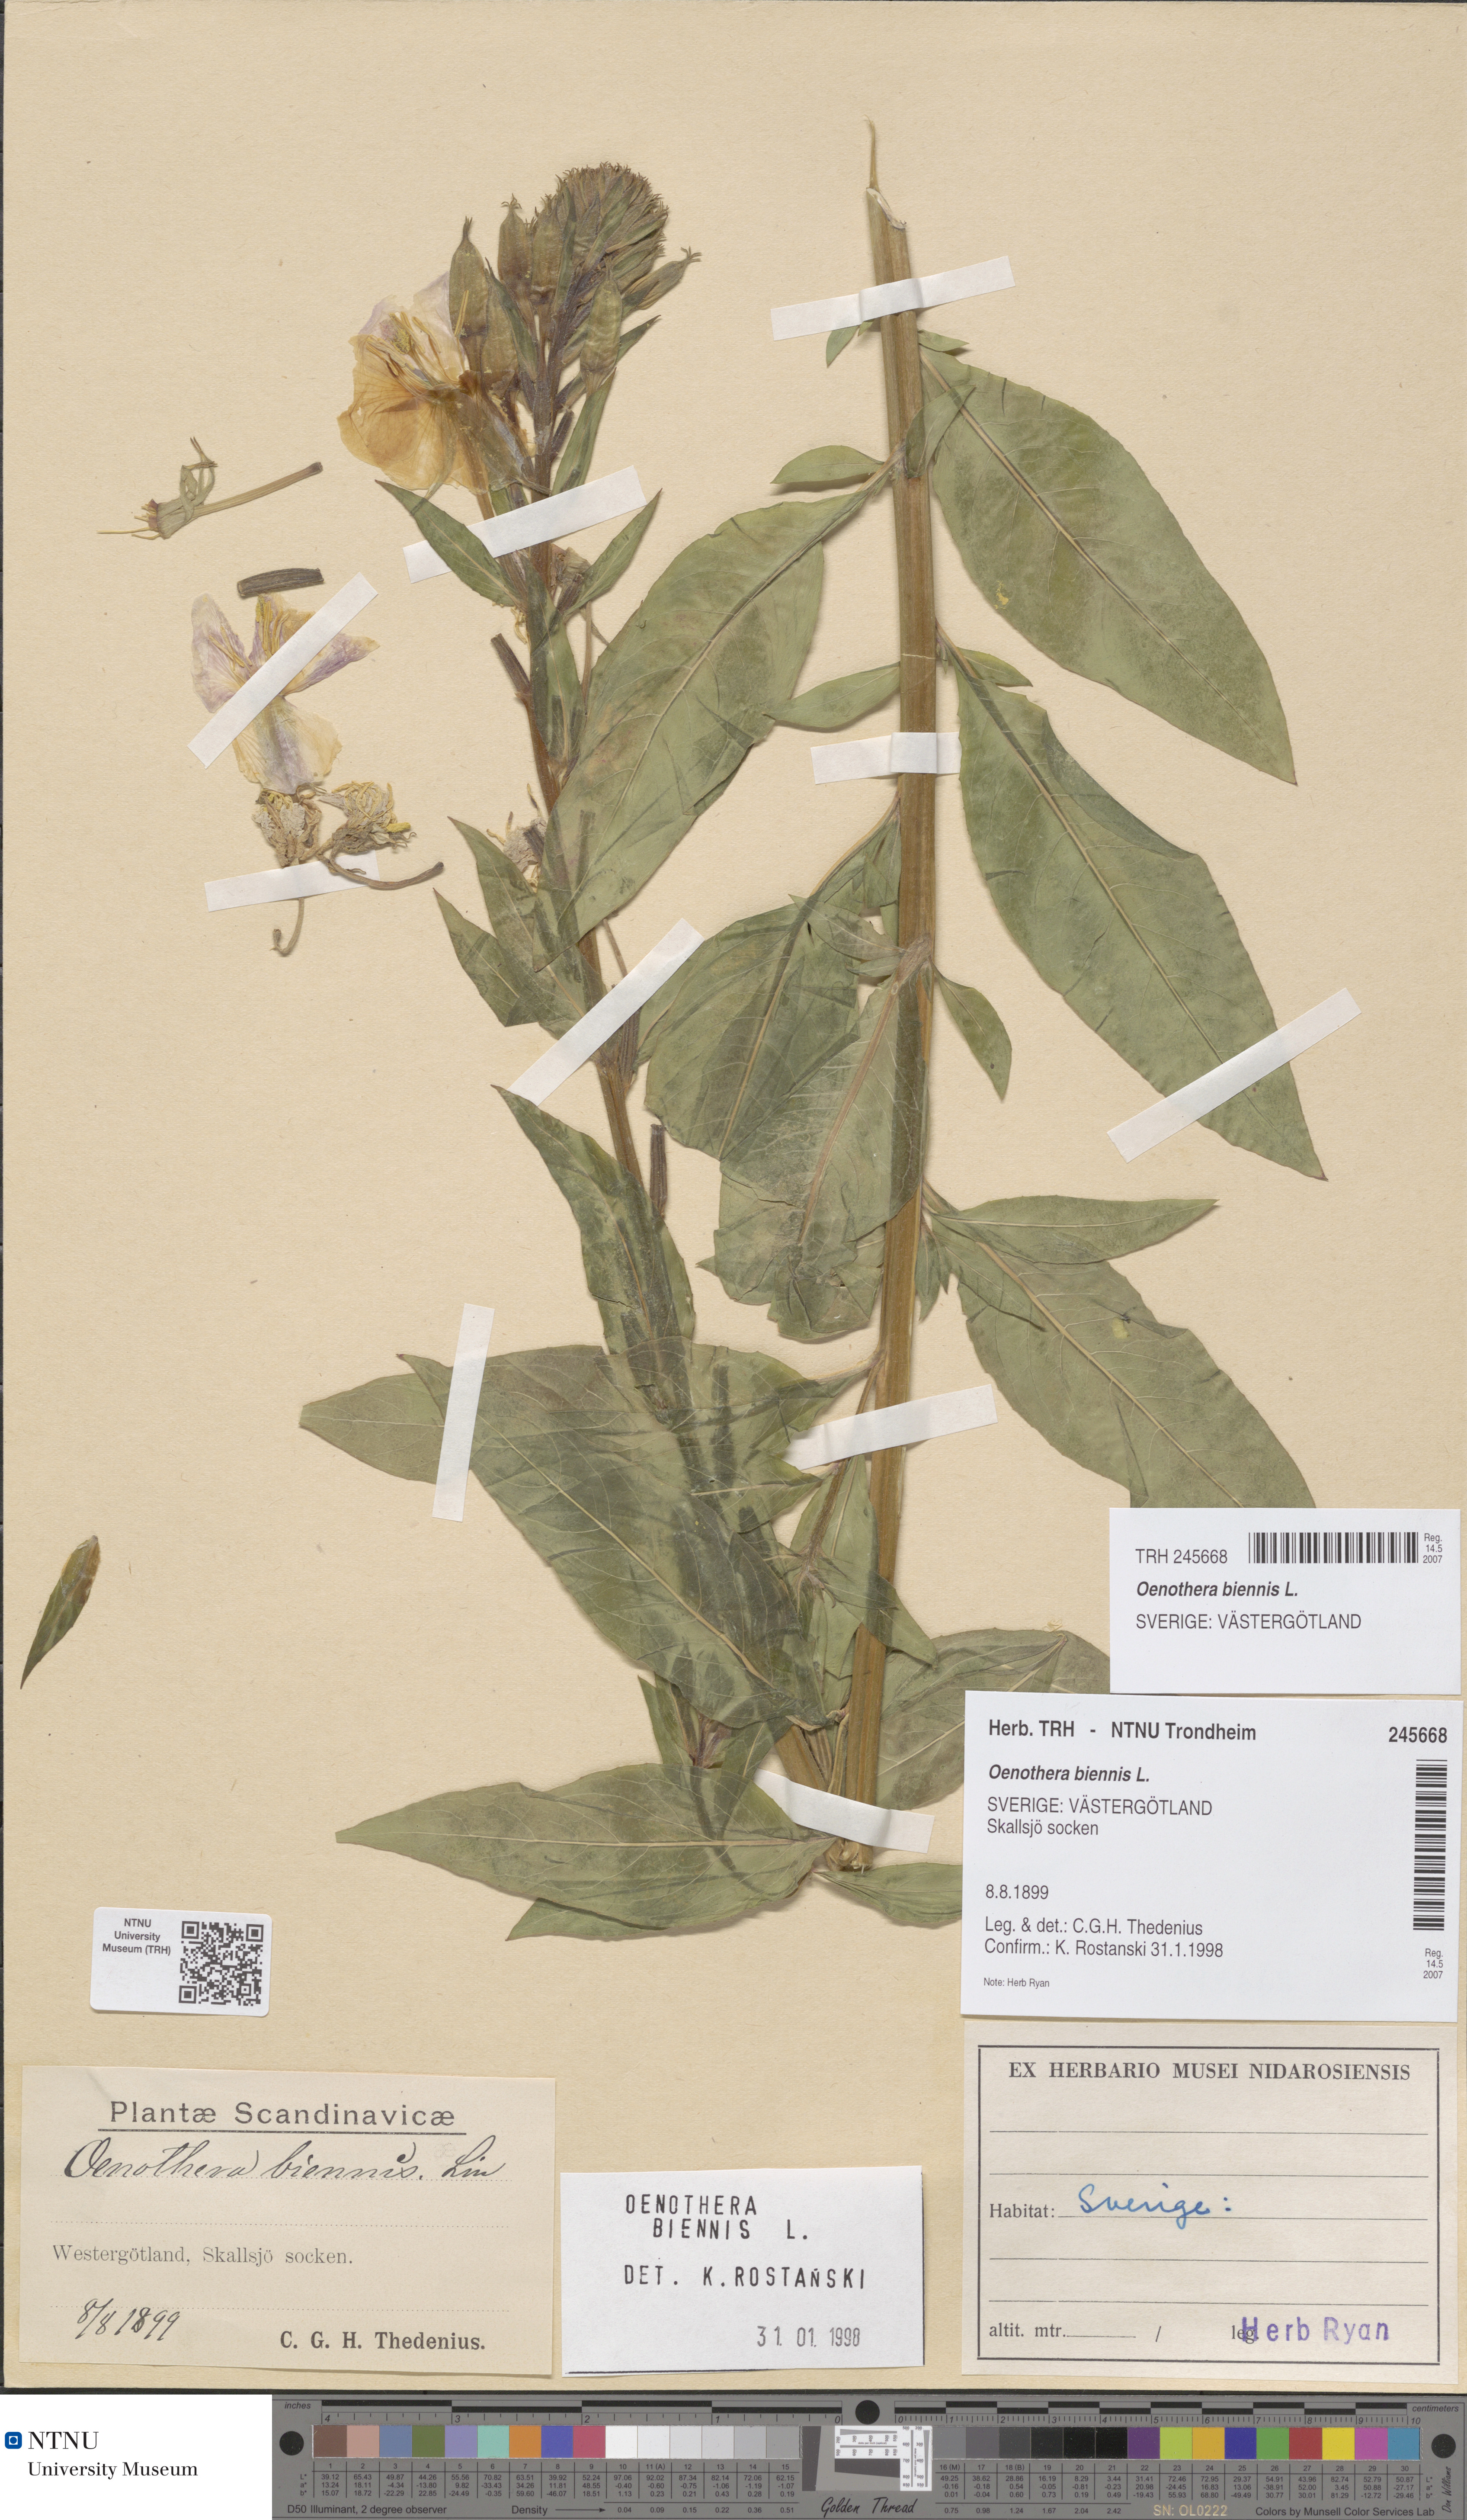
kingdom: Plantae
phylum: Tracheophyta
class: Magnoliopsida
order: Myrtales
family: Onagraceae
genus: Oenothera
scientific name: Oenothera biennis
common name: Common evening-primrose
